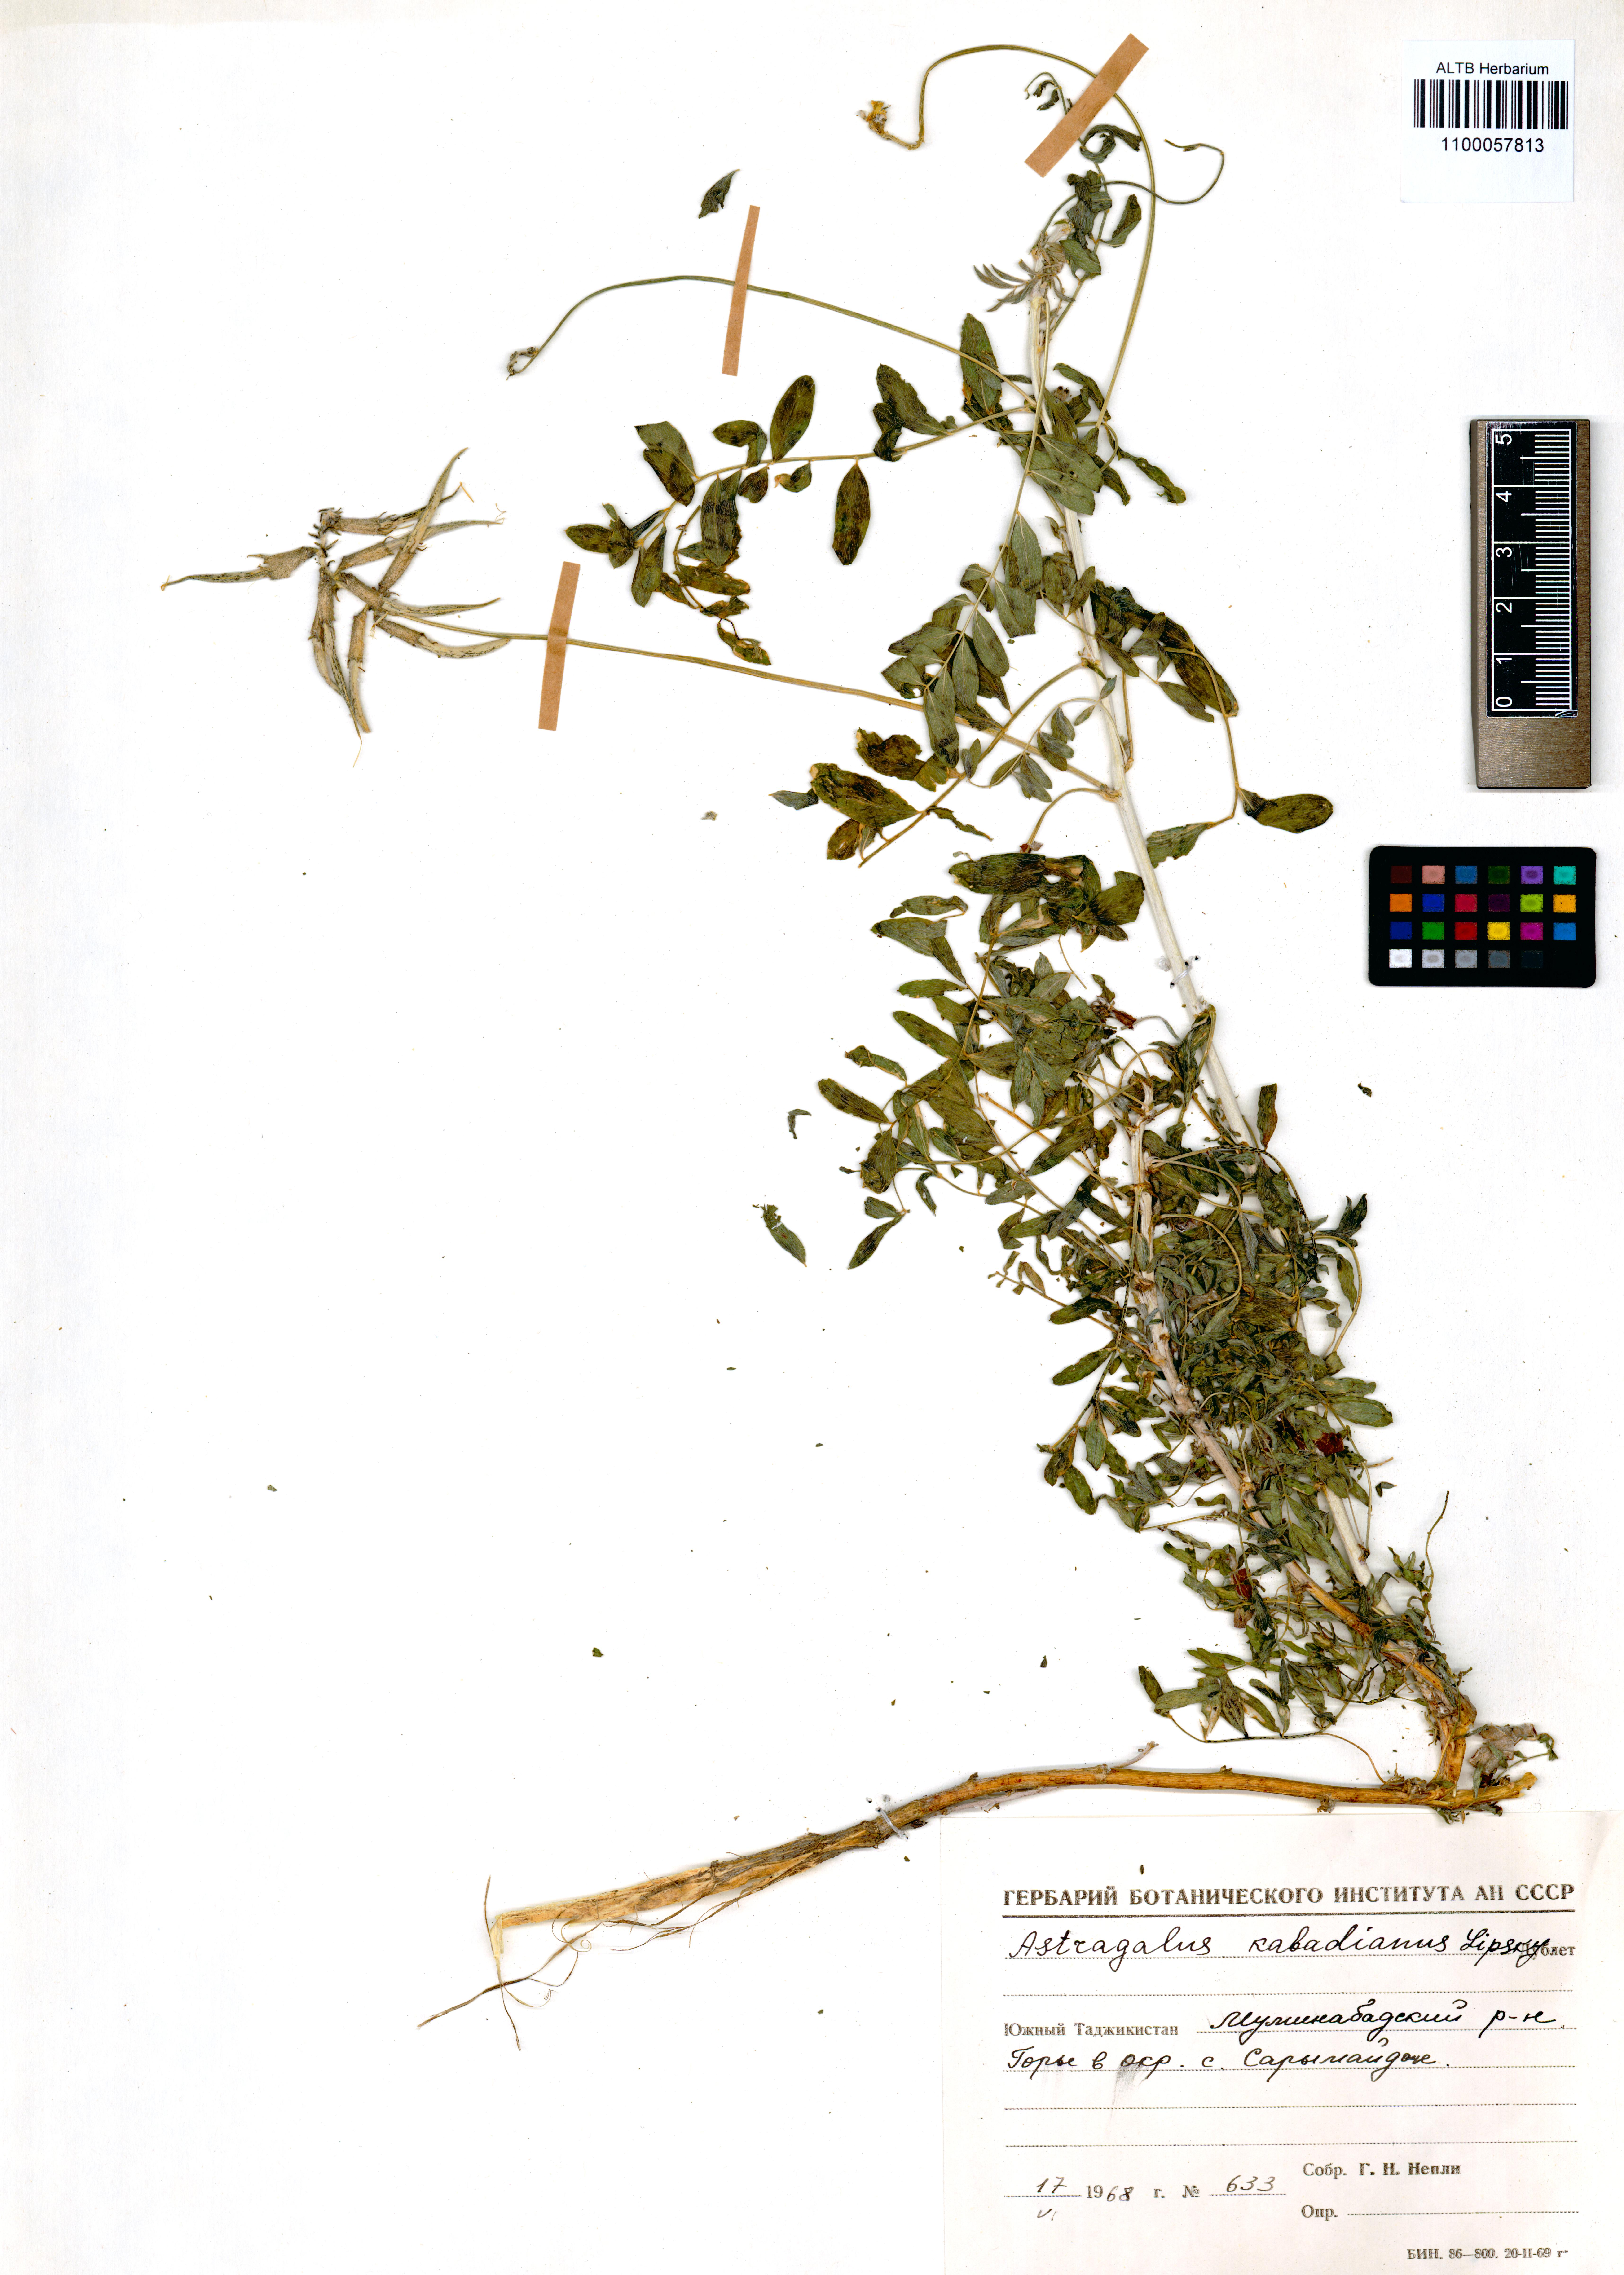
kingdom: Plantae
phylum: Tracheophyta
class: Magnoliopsida
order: Fabales
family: Fabaceae
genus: Astragalus
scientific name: Astragalus kabadianus
